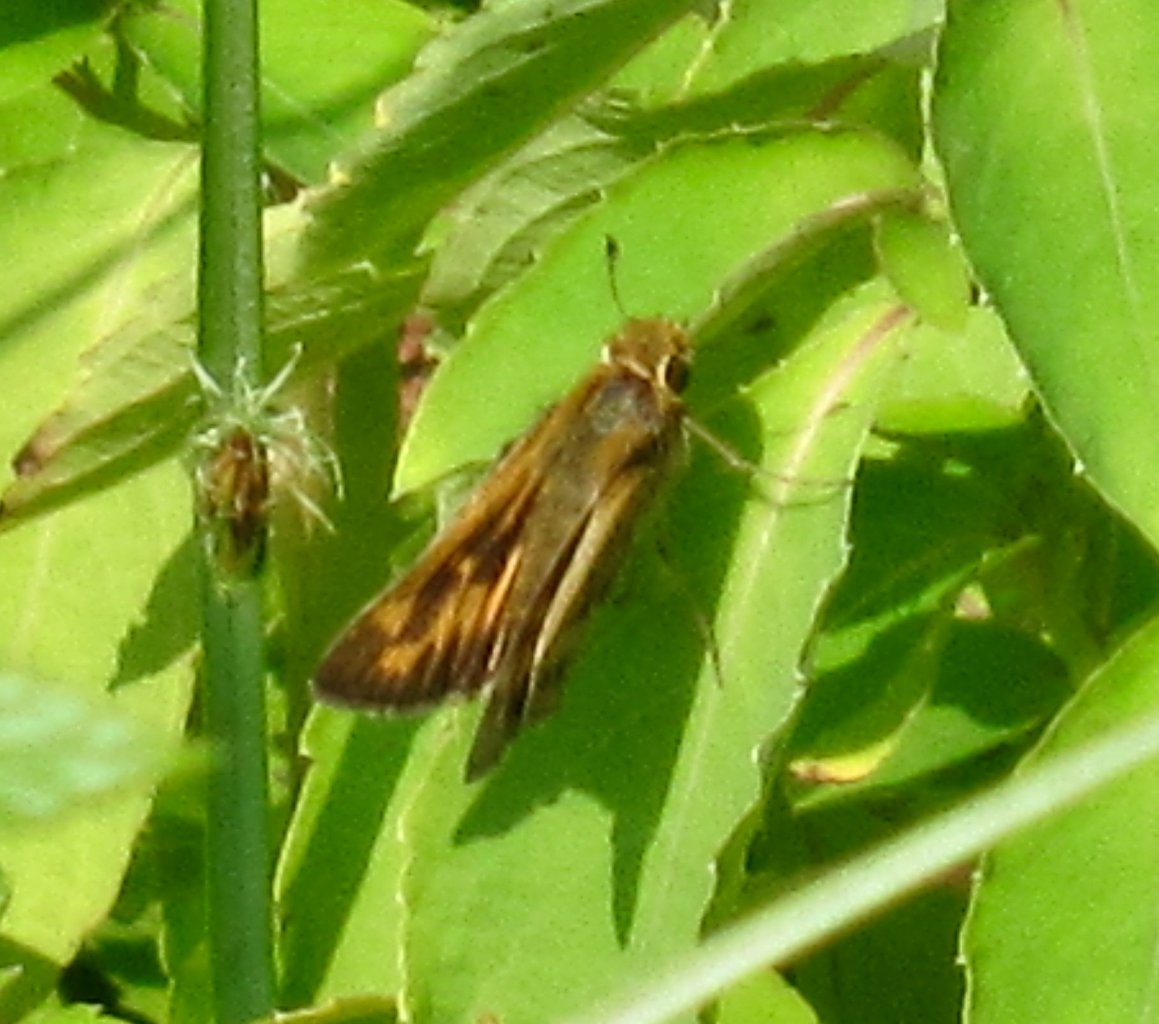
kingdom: Animalia
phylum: Arthropoda
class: Insecta
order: Lepidoptera
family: Hesperiidae
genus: Hylephila
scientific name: Hylephila phyleus
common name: Fiery Skipper
